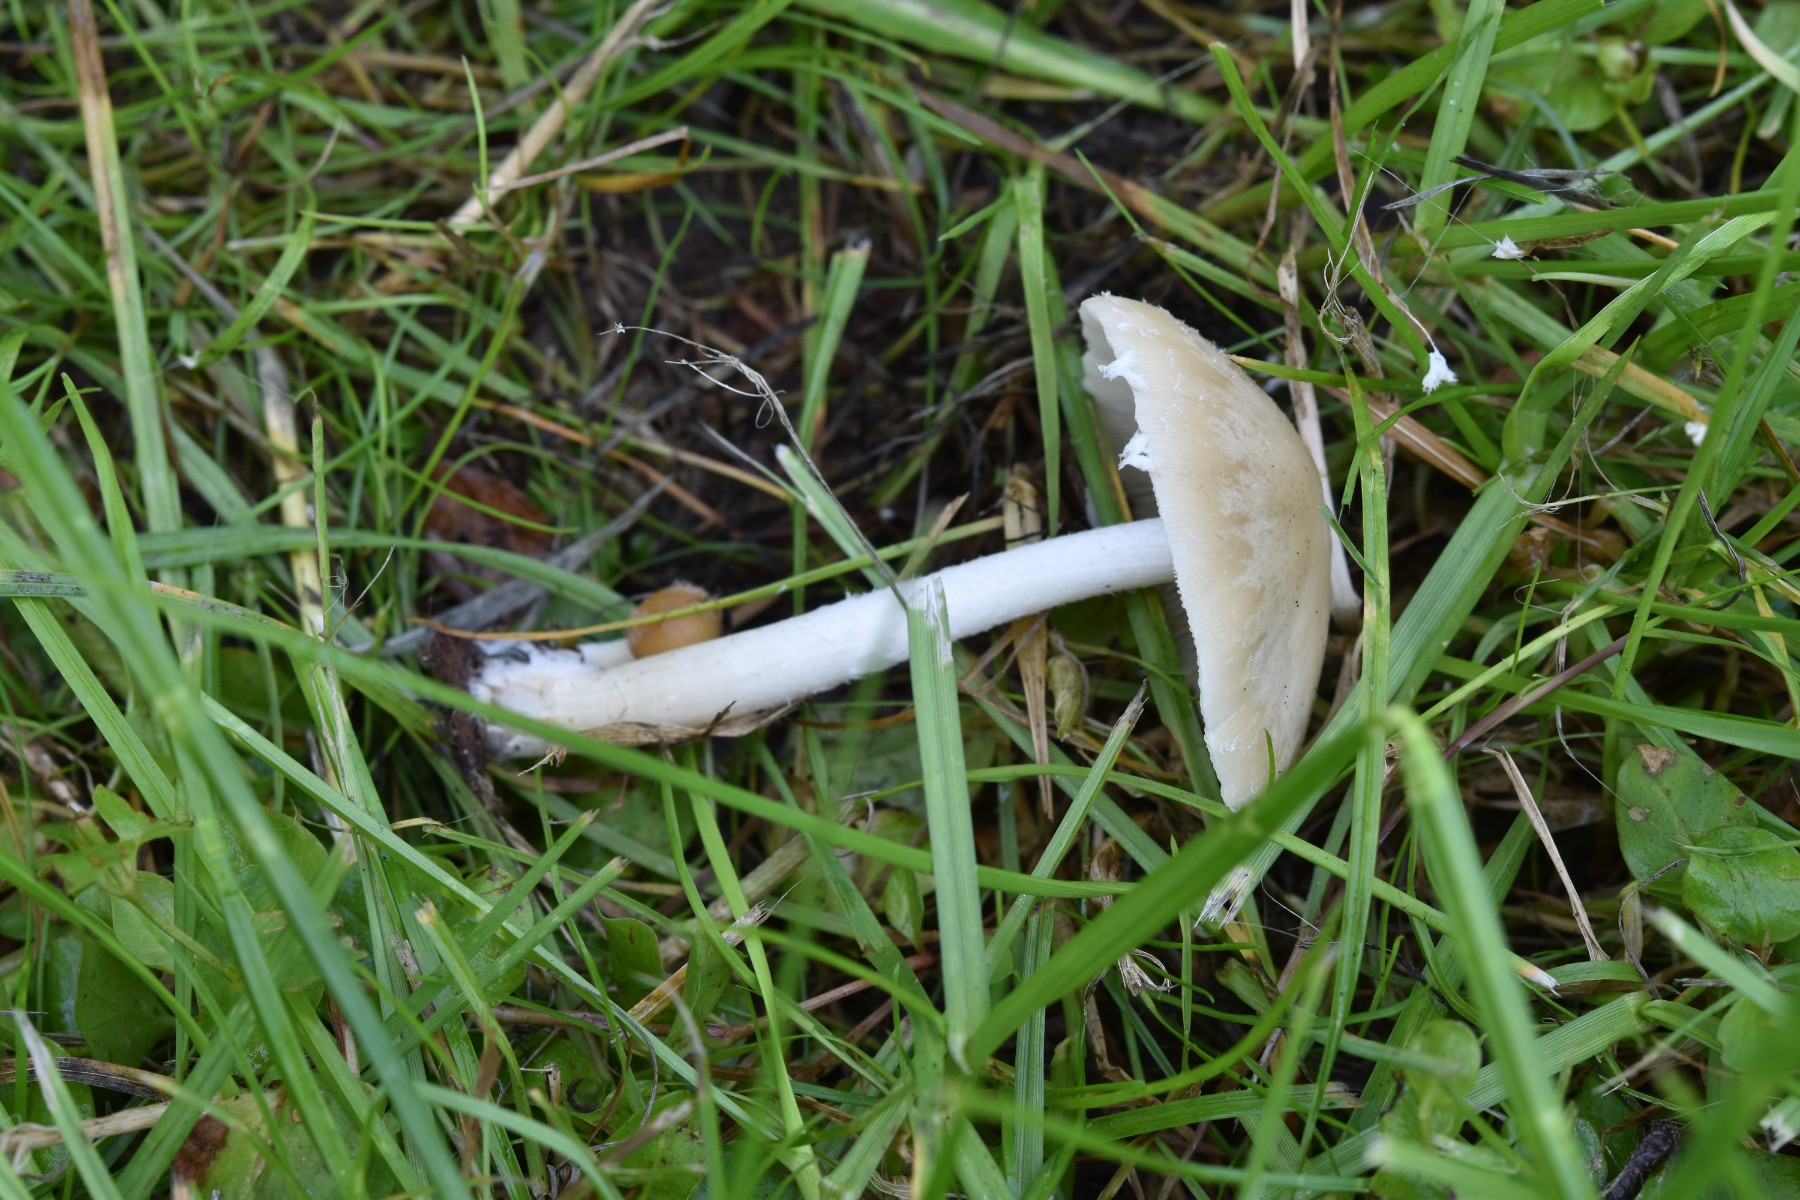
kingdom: Fungi
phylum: Basidiomycota
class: Agaricomycetes
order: Agaricales
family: Psathyrellaceae
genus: Candolleomyces
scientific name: Candolleomyces candolleanus
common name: Candolles mørkhat
